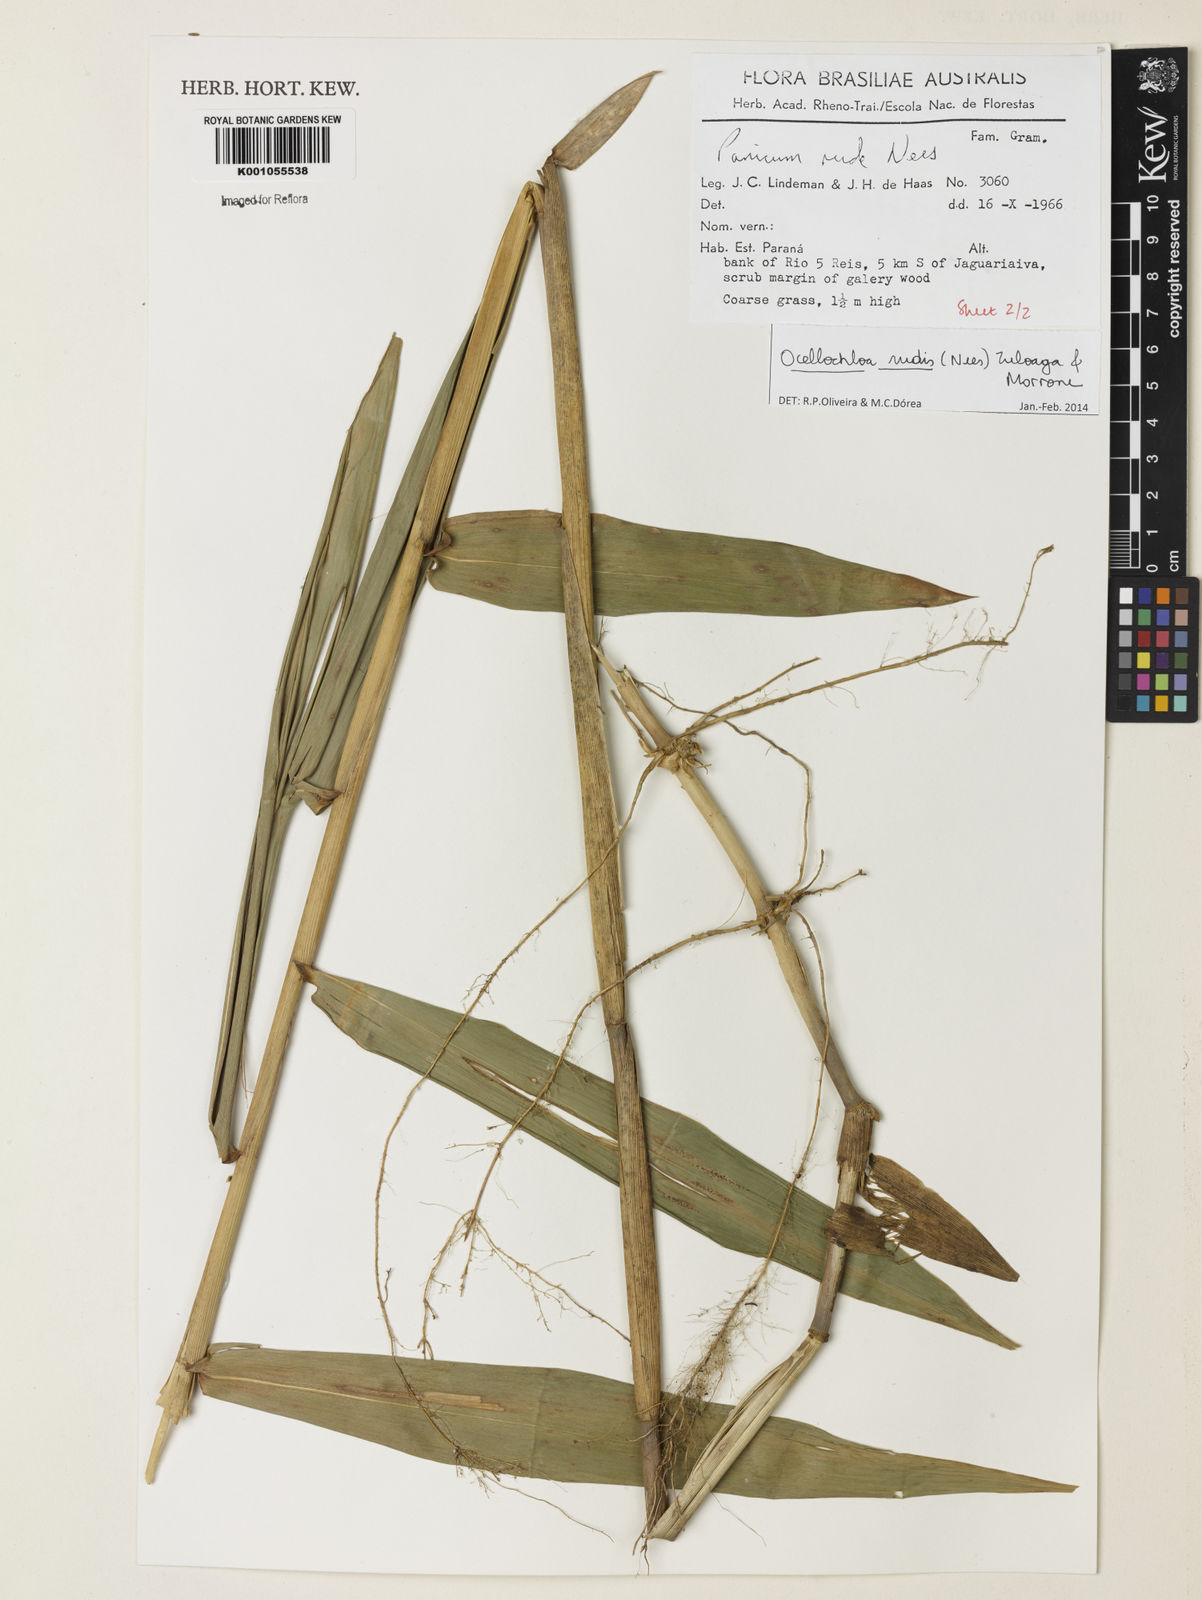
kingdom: Plantae
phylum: Tracheophyta
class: Liliopsida
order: Poales
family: Poaceae
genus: Ocellochloa
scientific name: Ocellochloa rudis
